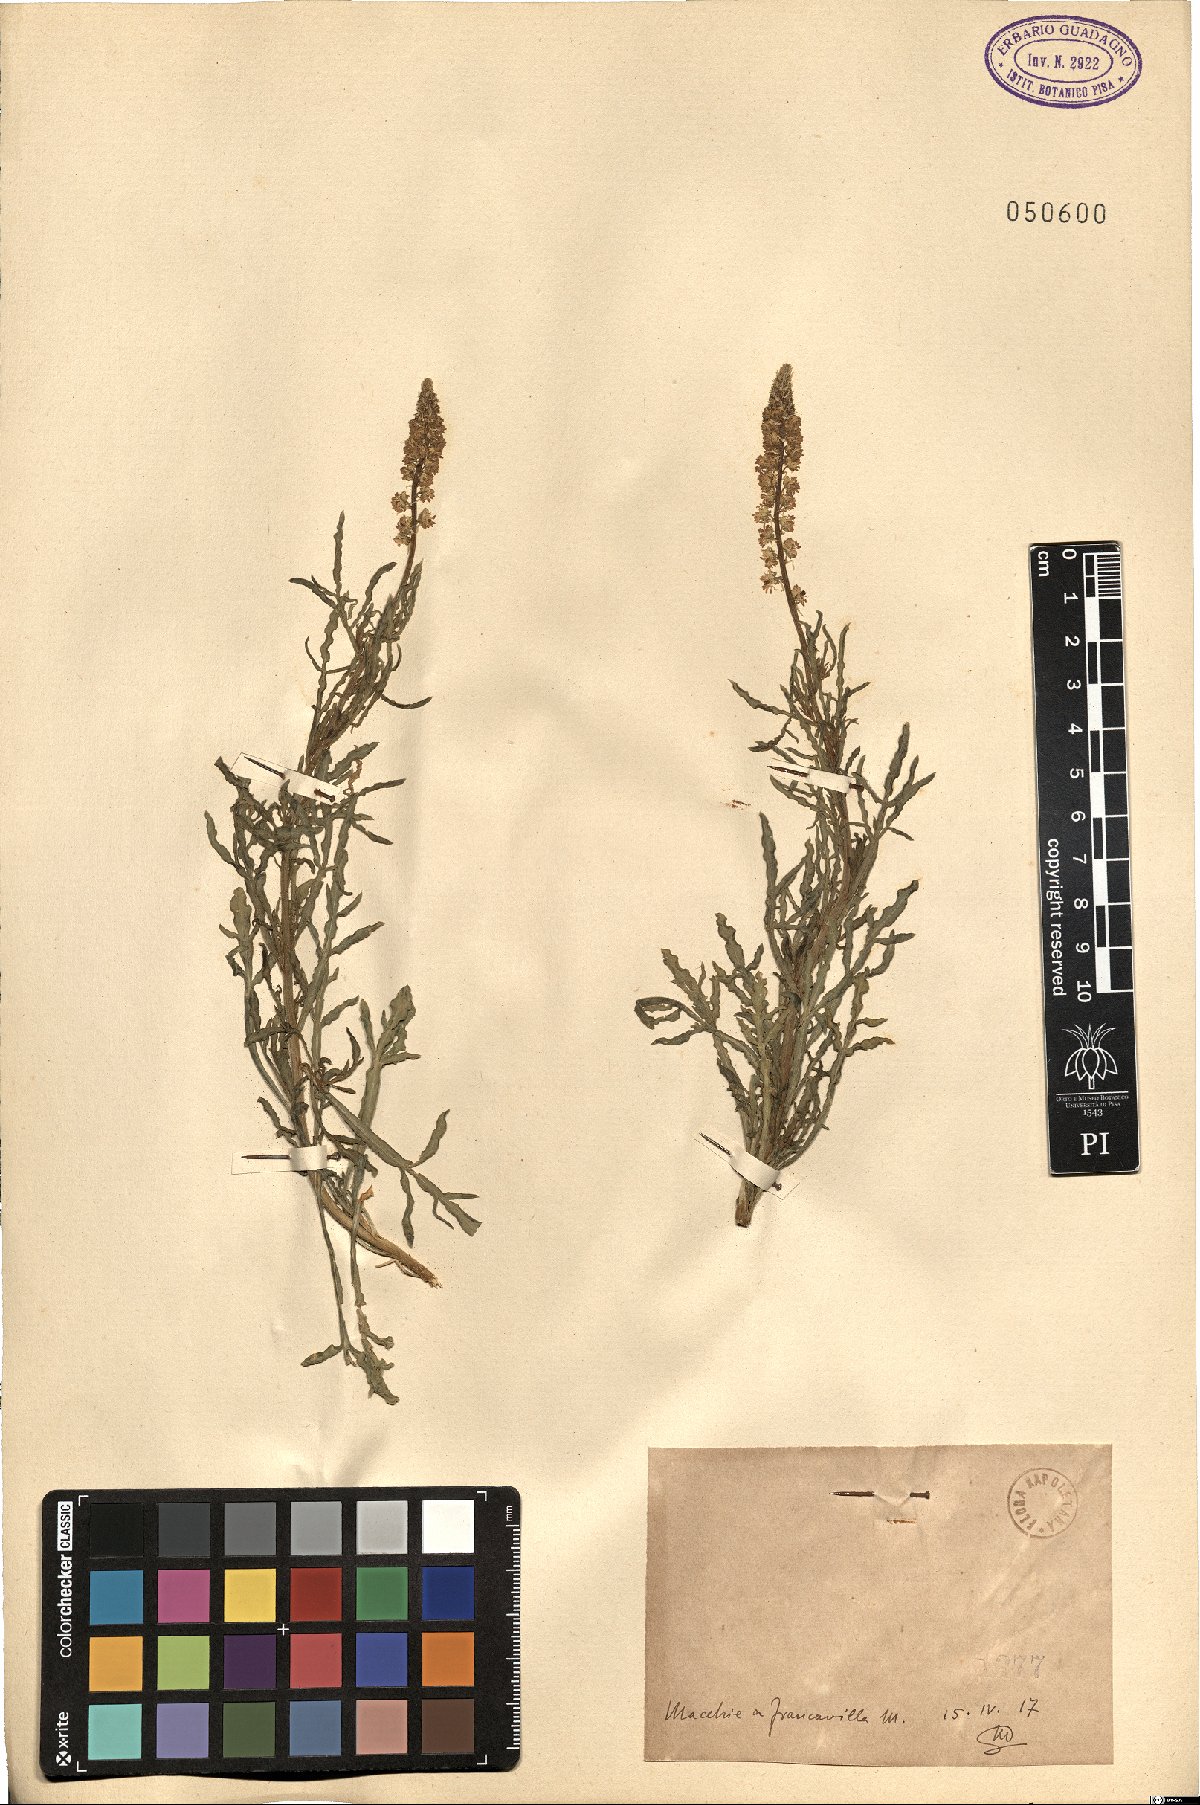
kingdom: Plantae
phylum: Tracheophyta
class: Magnoliopsida
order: Brassicales
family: Resedaceae
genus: Reseda
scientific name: Reseda
